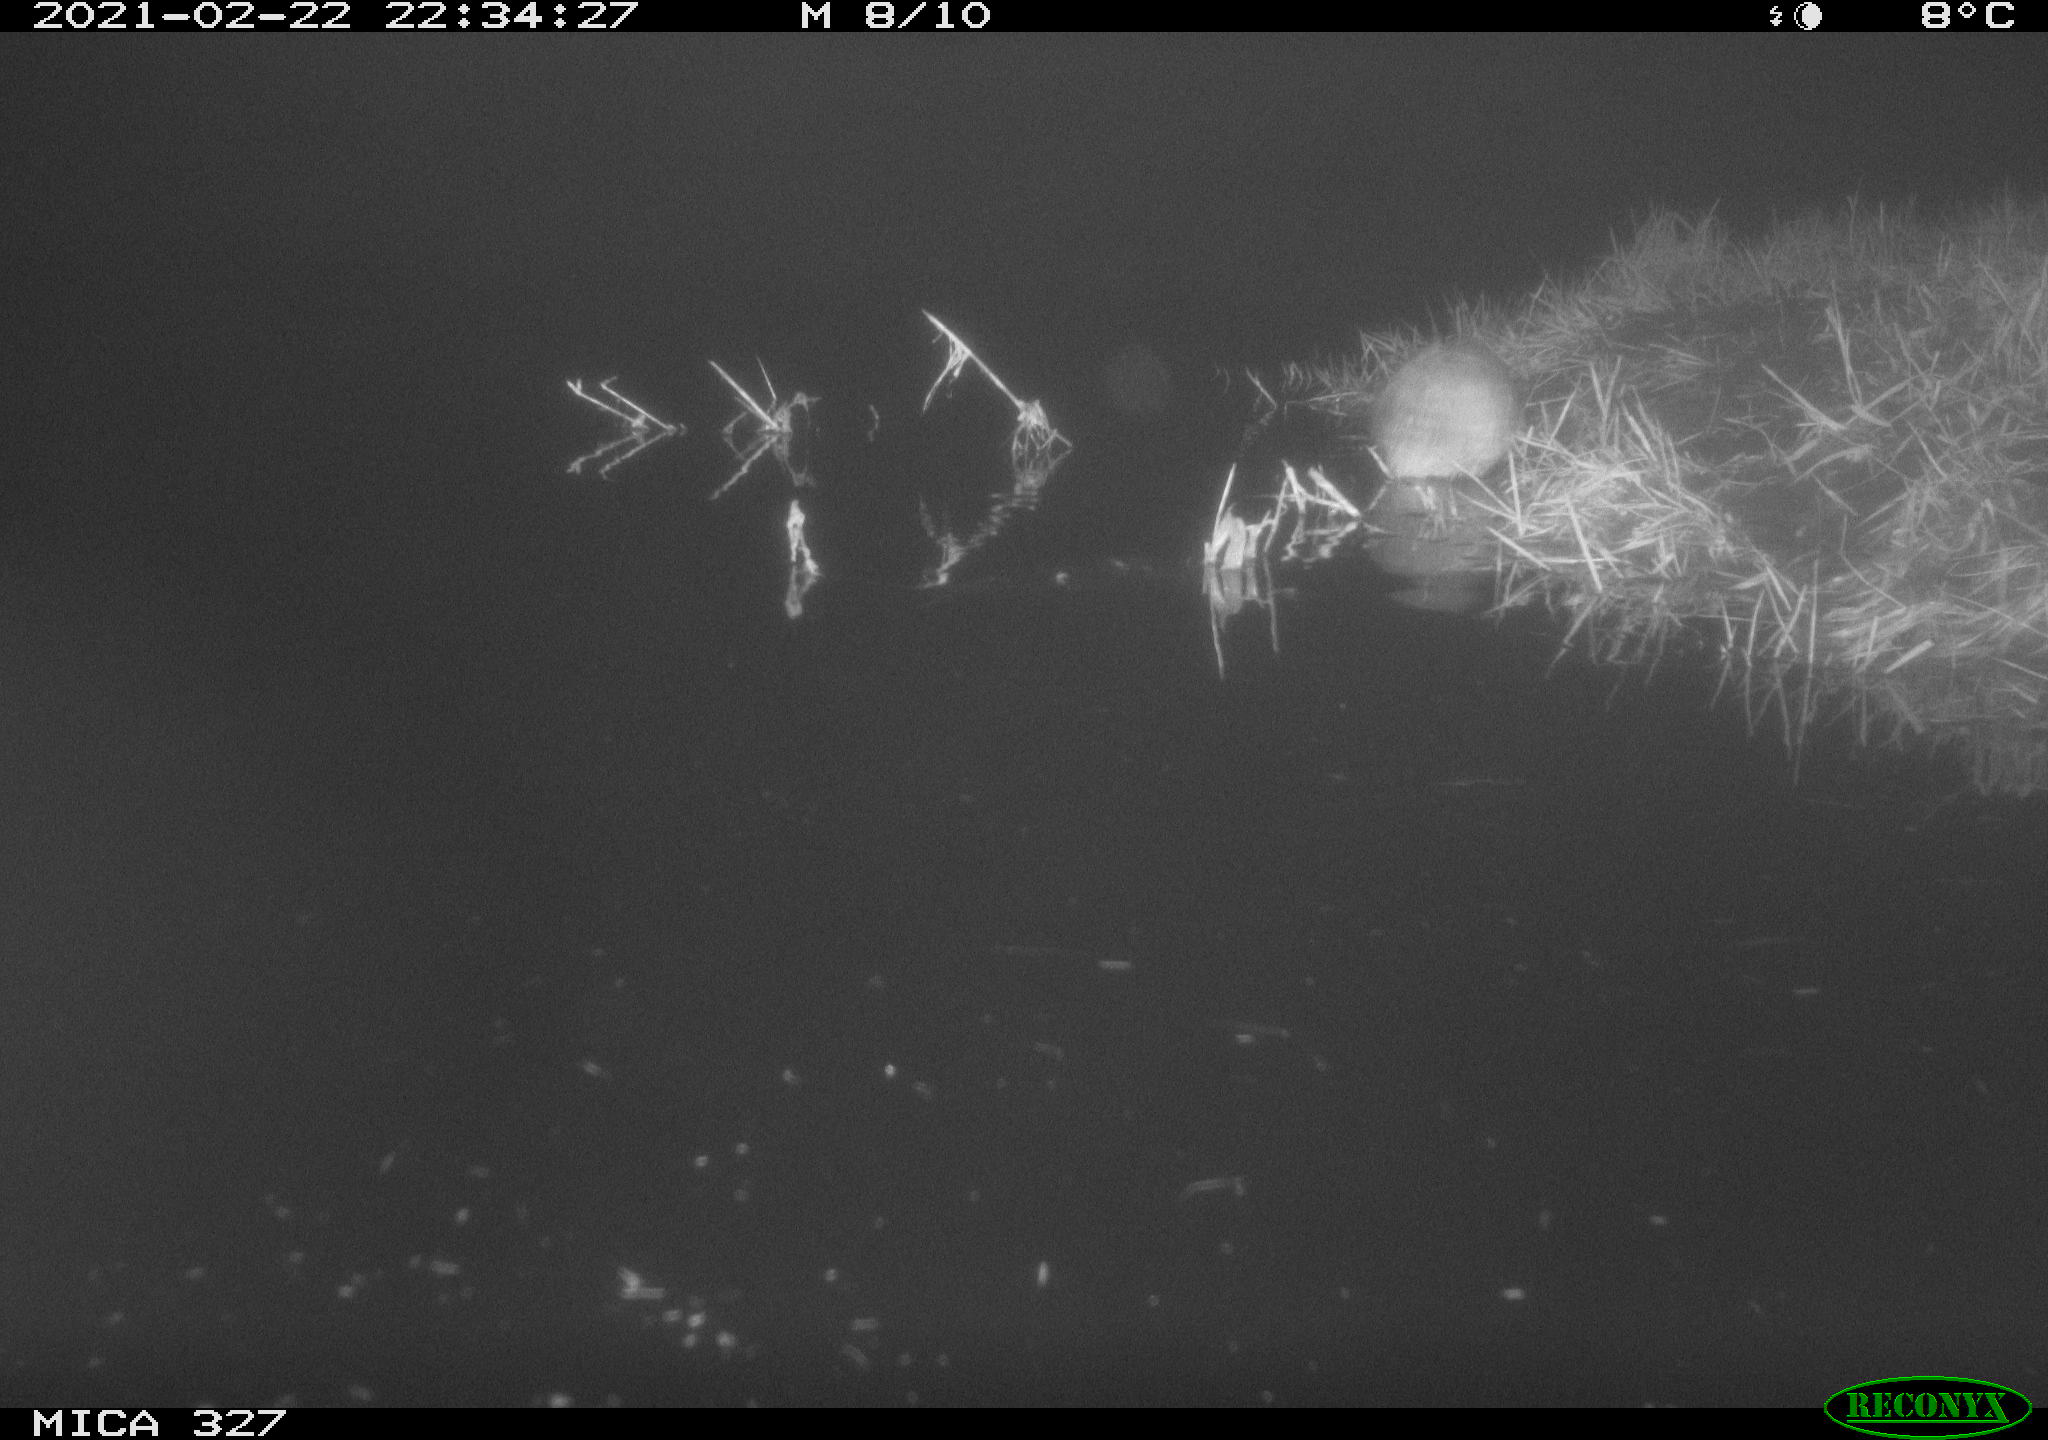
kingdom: Animalia
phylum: Chordata
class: Mammalia
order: Rodentia
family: Cricetidae
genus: Ondatra
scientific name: Ondatra zibethicus
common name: Muskrat
